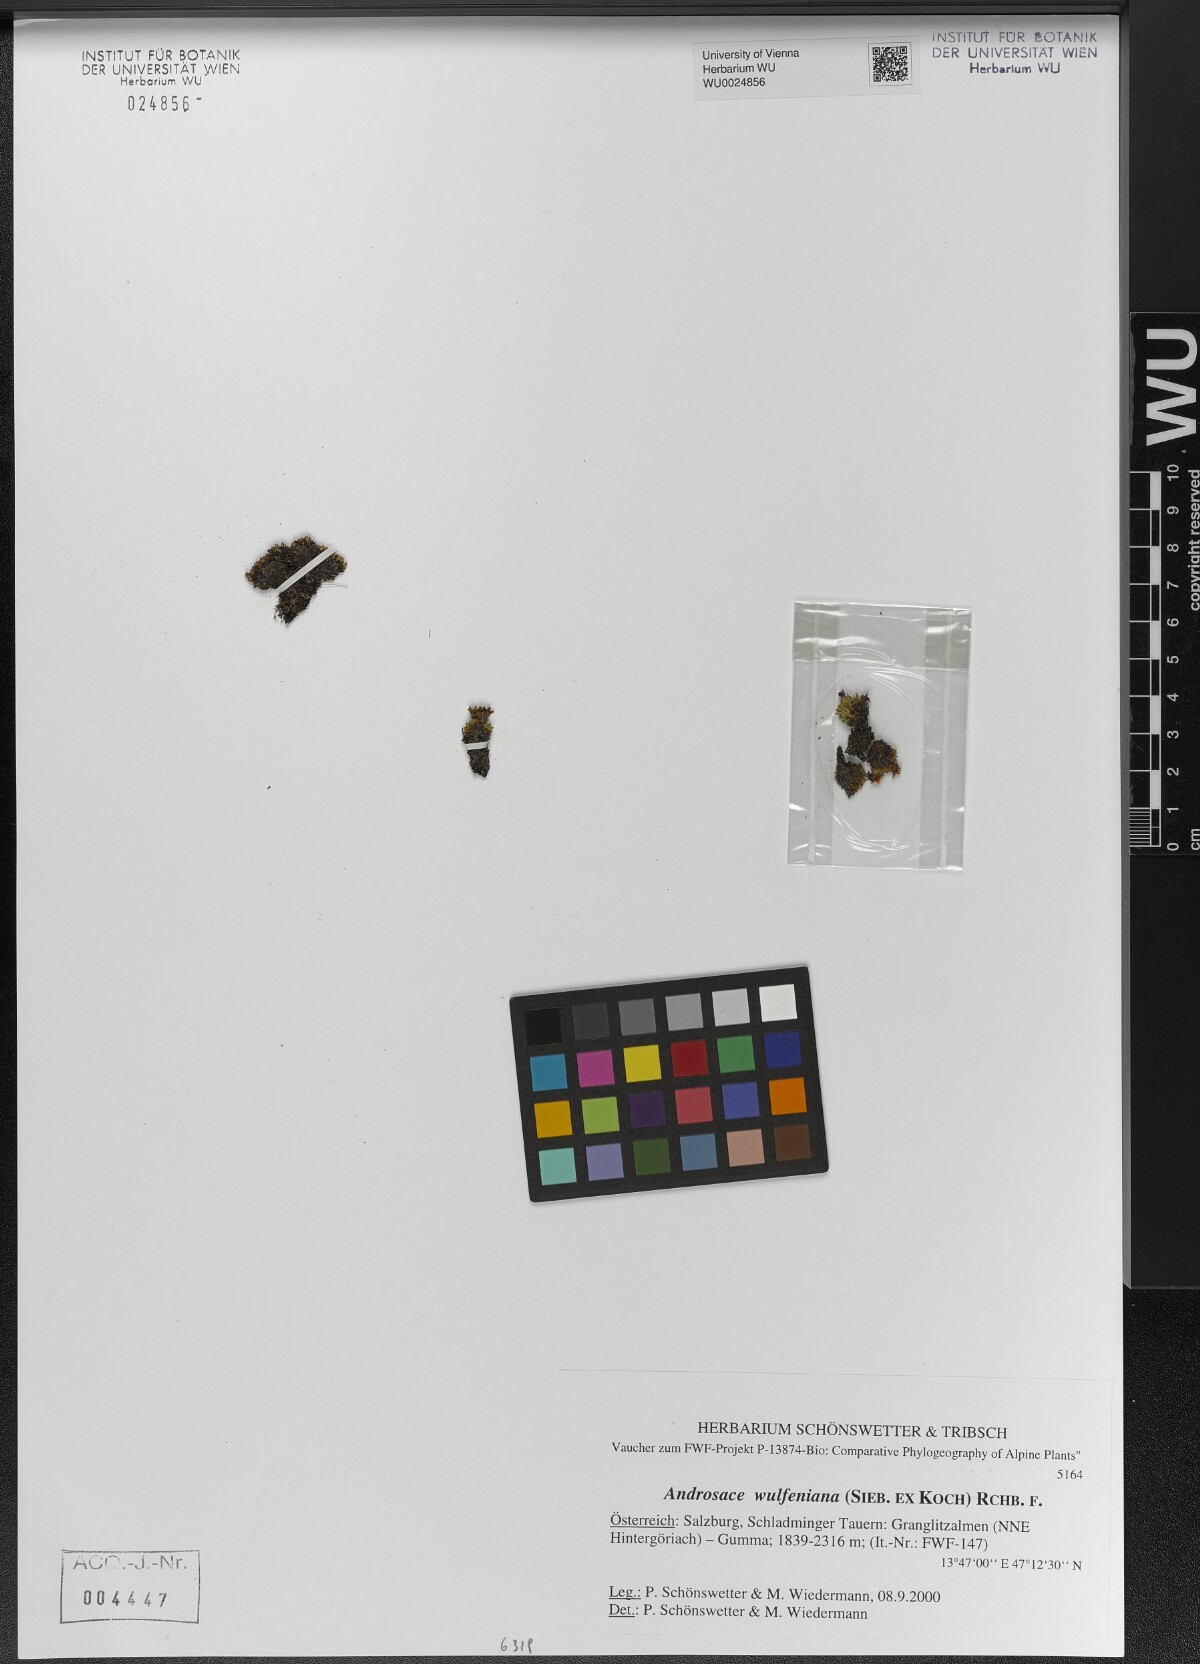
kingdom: Plantae
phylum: Tracheophyta
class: Magnoliopsida
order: Ericales
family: Primulaceae
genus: Androsace
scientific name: Androsace wulfeniana
